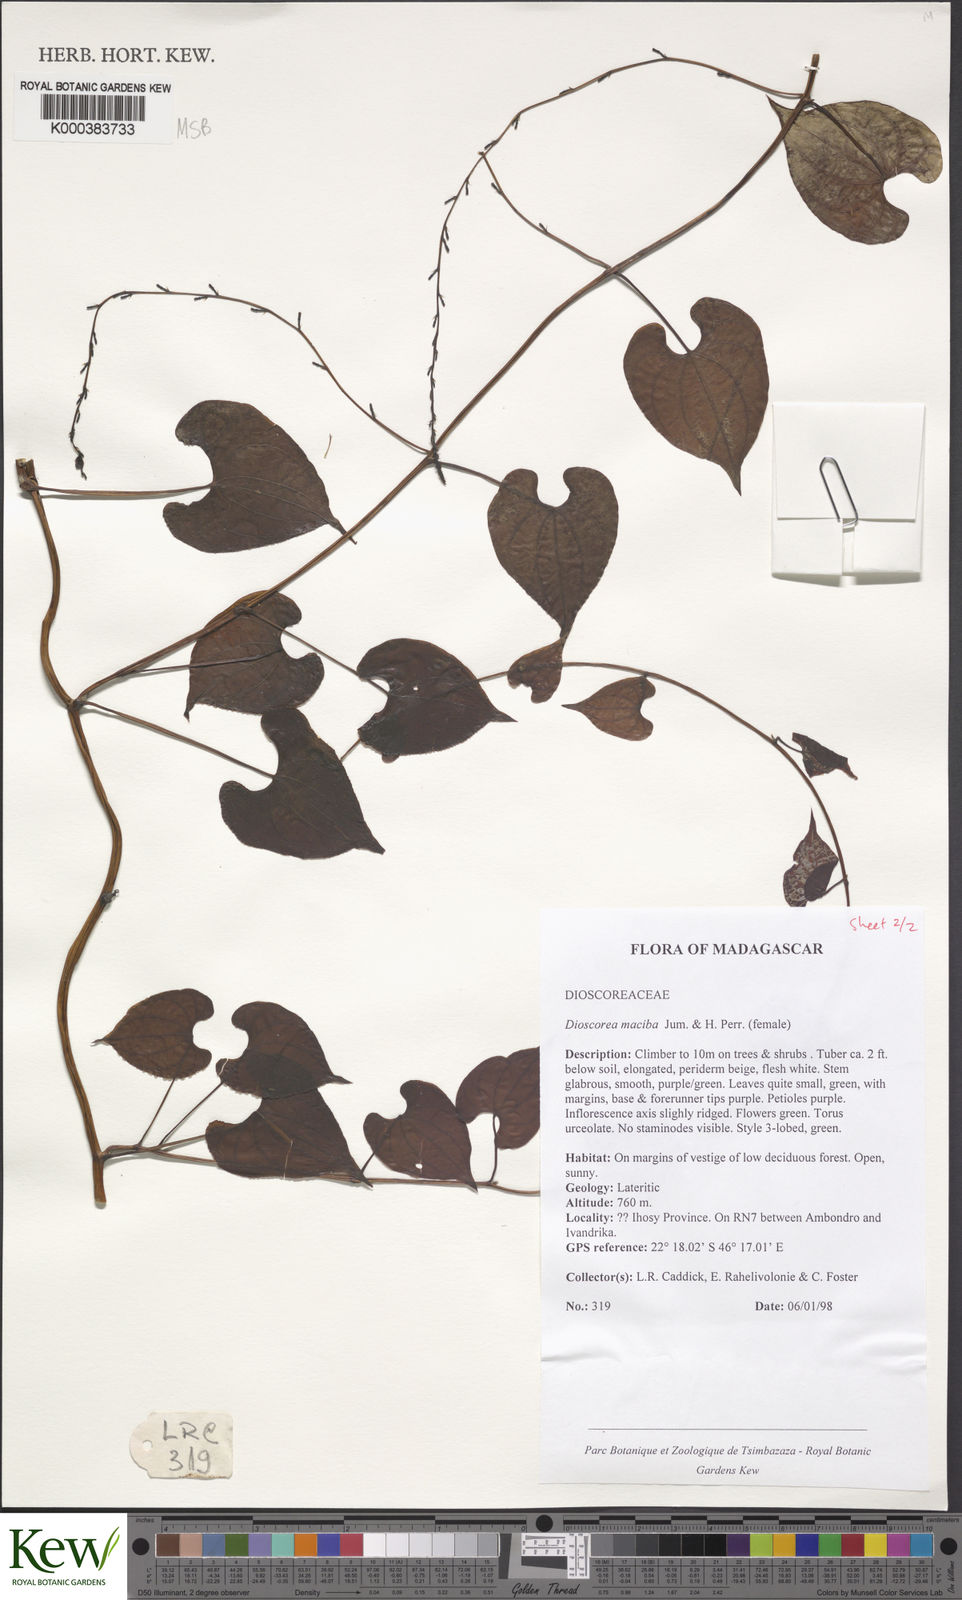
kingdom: Plantae
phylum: Tracheophyta
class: Liliopsida
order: Dioscoreales
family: Dioscoreaceae
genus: Dioscorea
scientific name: Dioscorea
